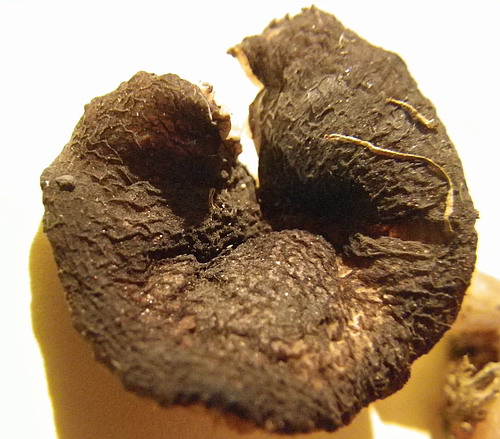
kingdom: Fungi
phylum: Basidiomycota
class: Agaricomycetes
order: Agaricales
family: Pluteaceae
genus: Pluteus
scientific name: Pluteus
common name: pudret skærmhat
